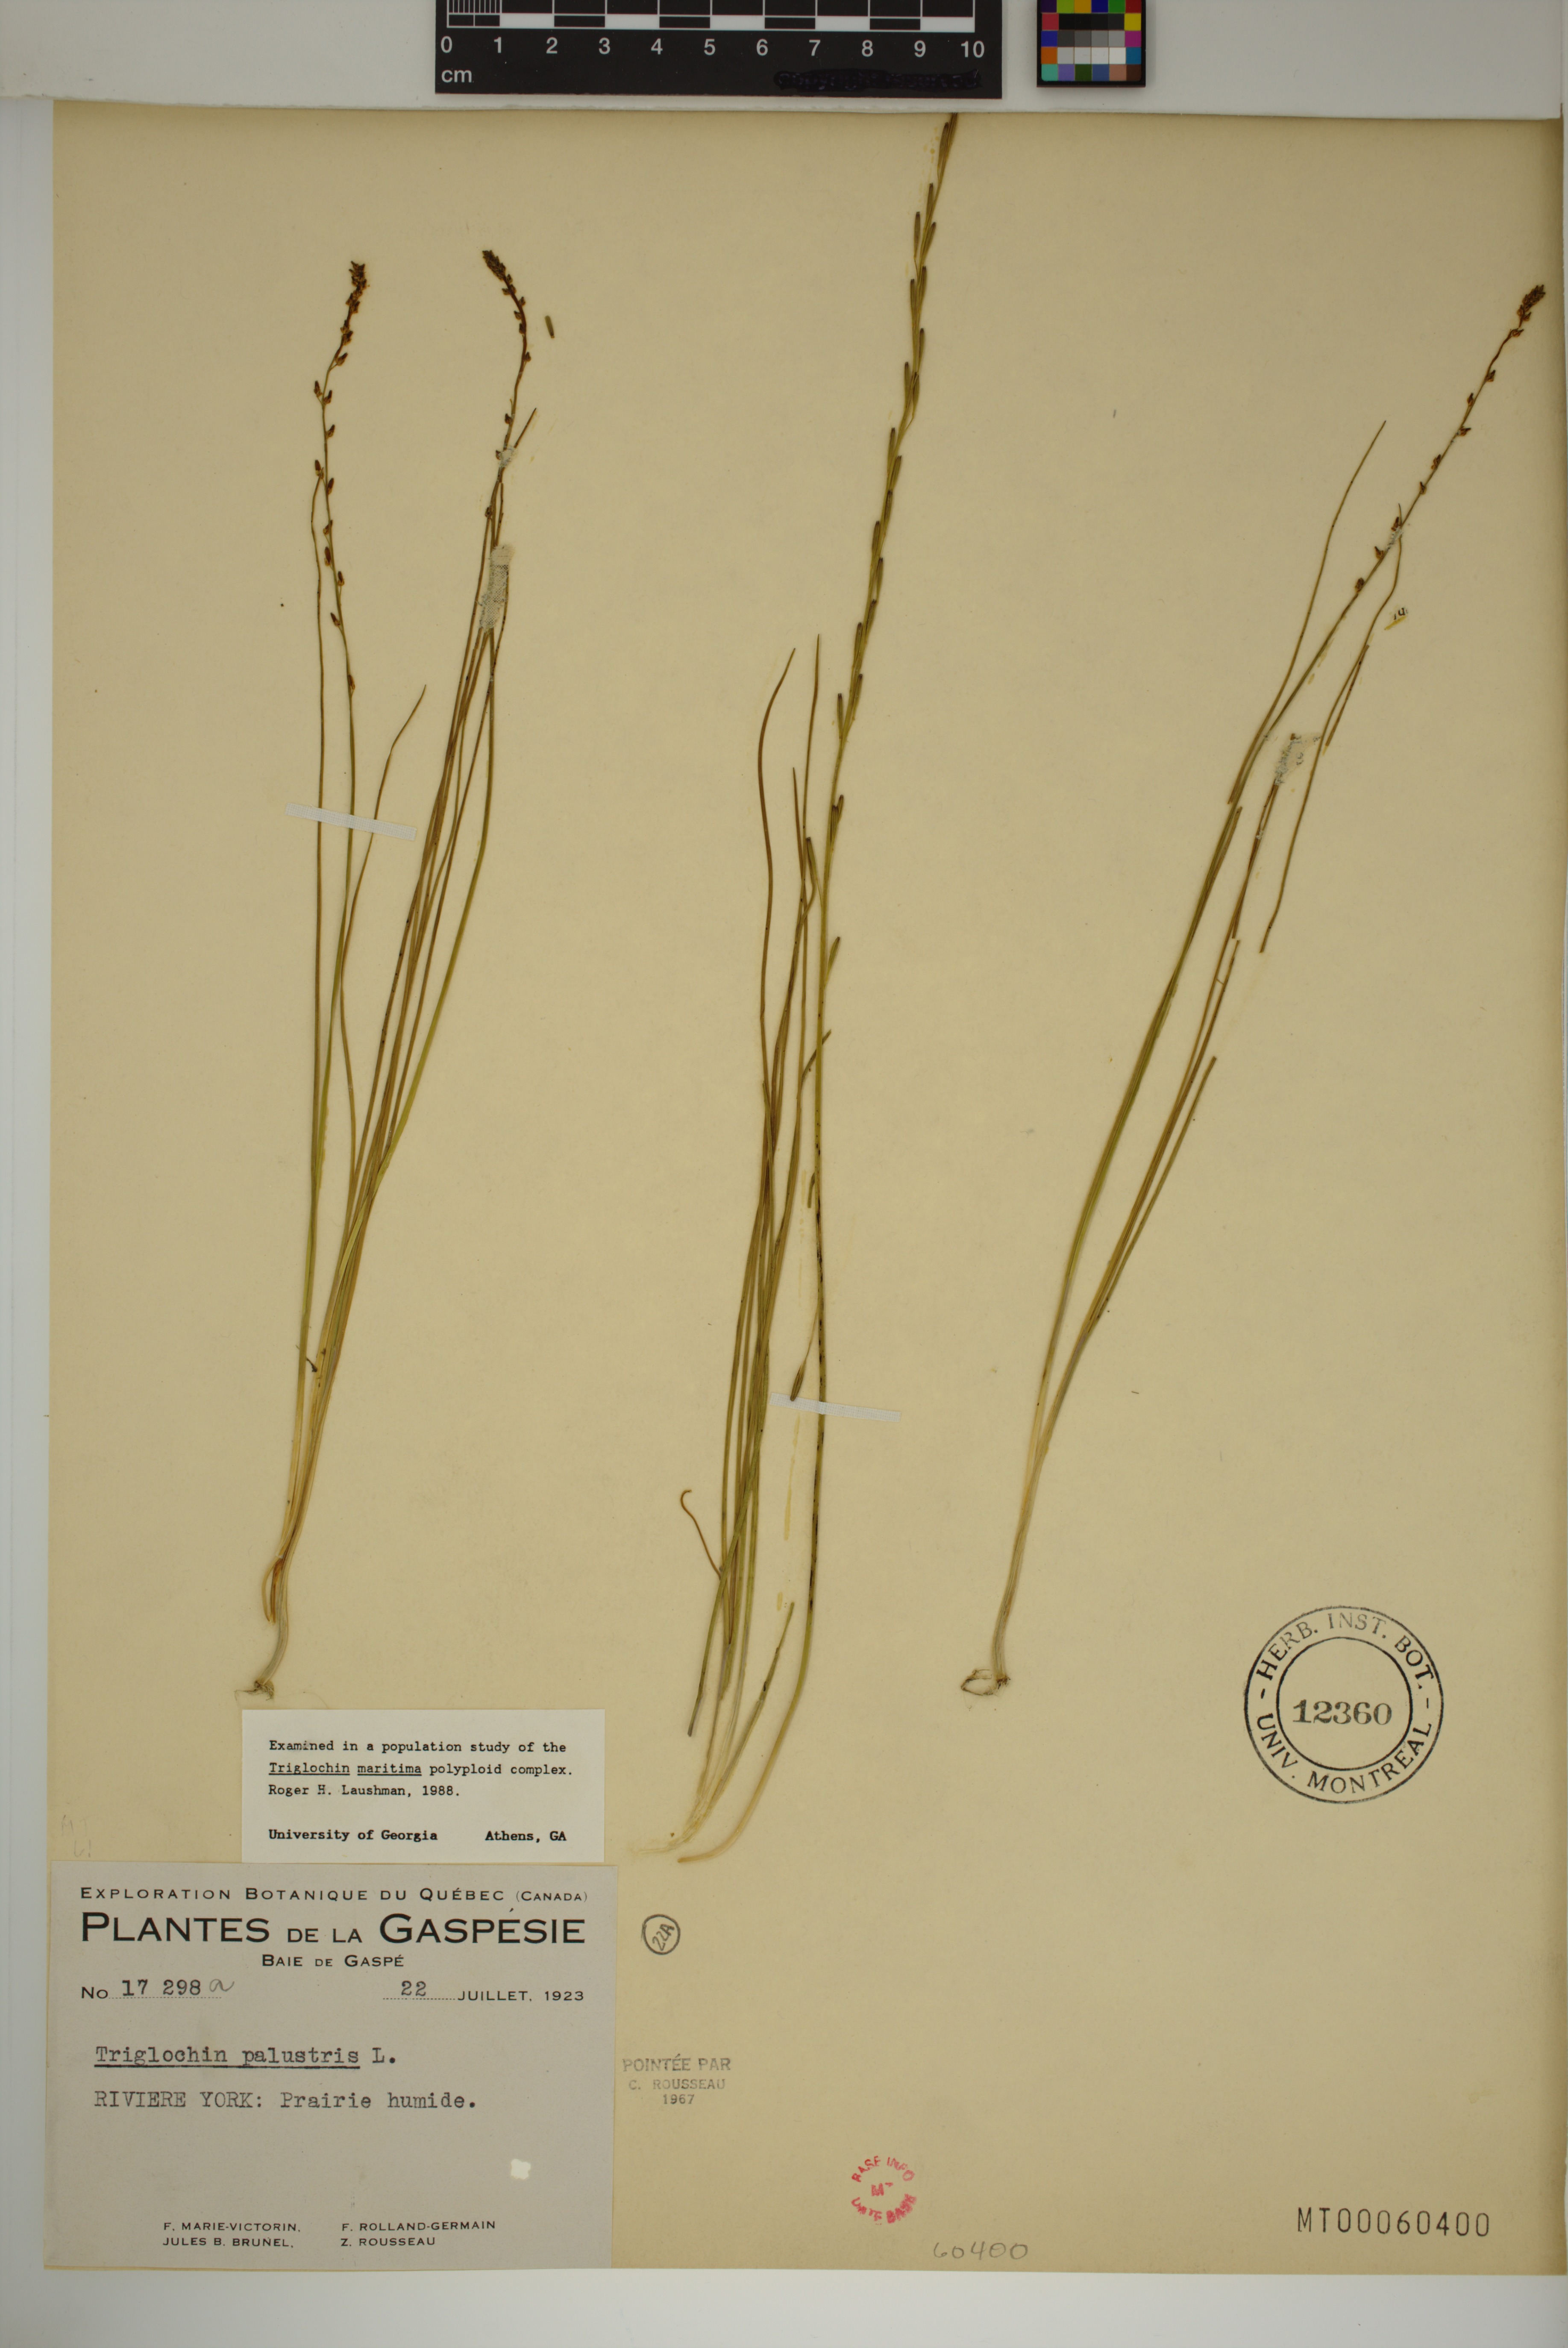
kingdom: Plantae
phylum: Tracheophyta
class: Liliopsida
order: Alismatales
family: Juncaginaceae
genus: Triglochin
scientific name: Triglochin palustris
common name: Marsh arrowgrass
